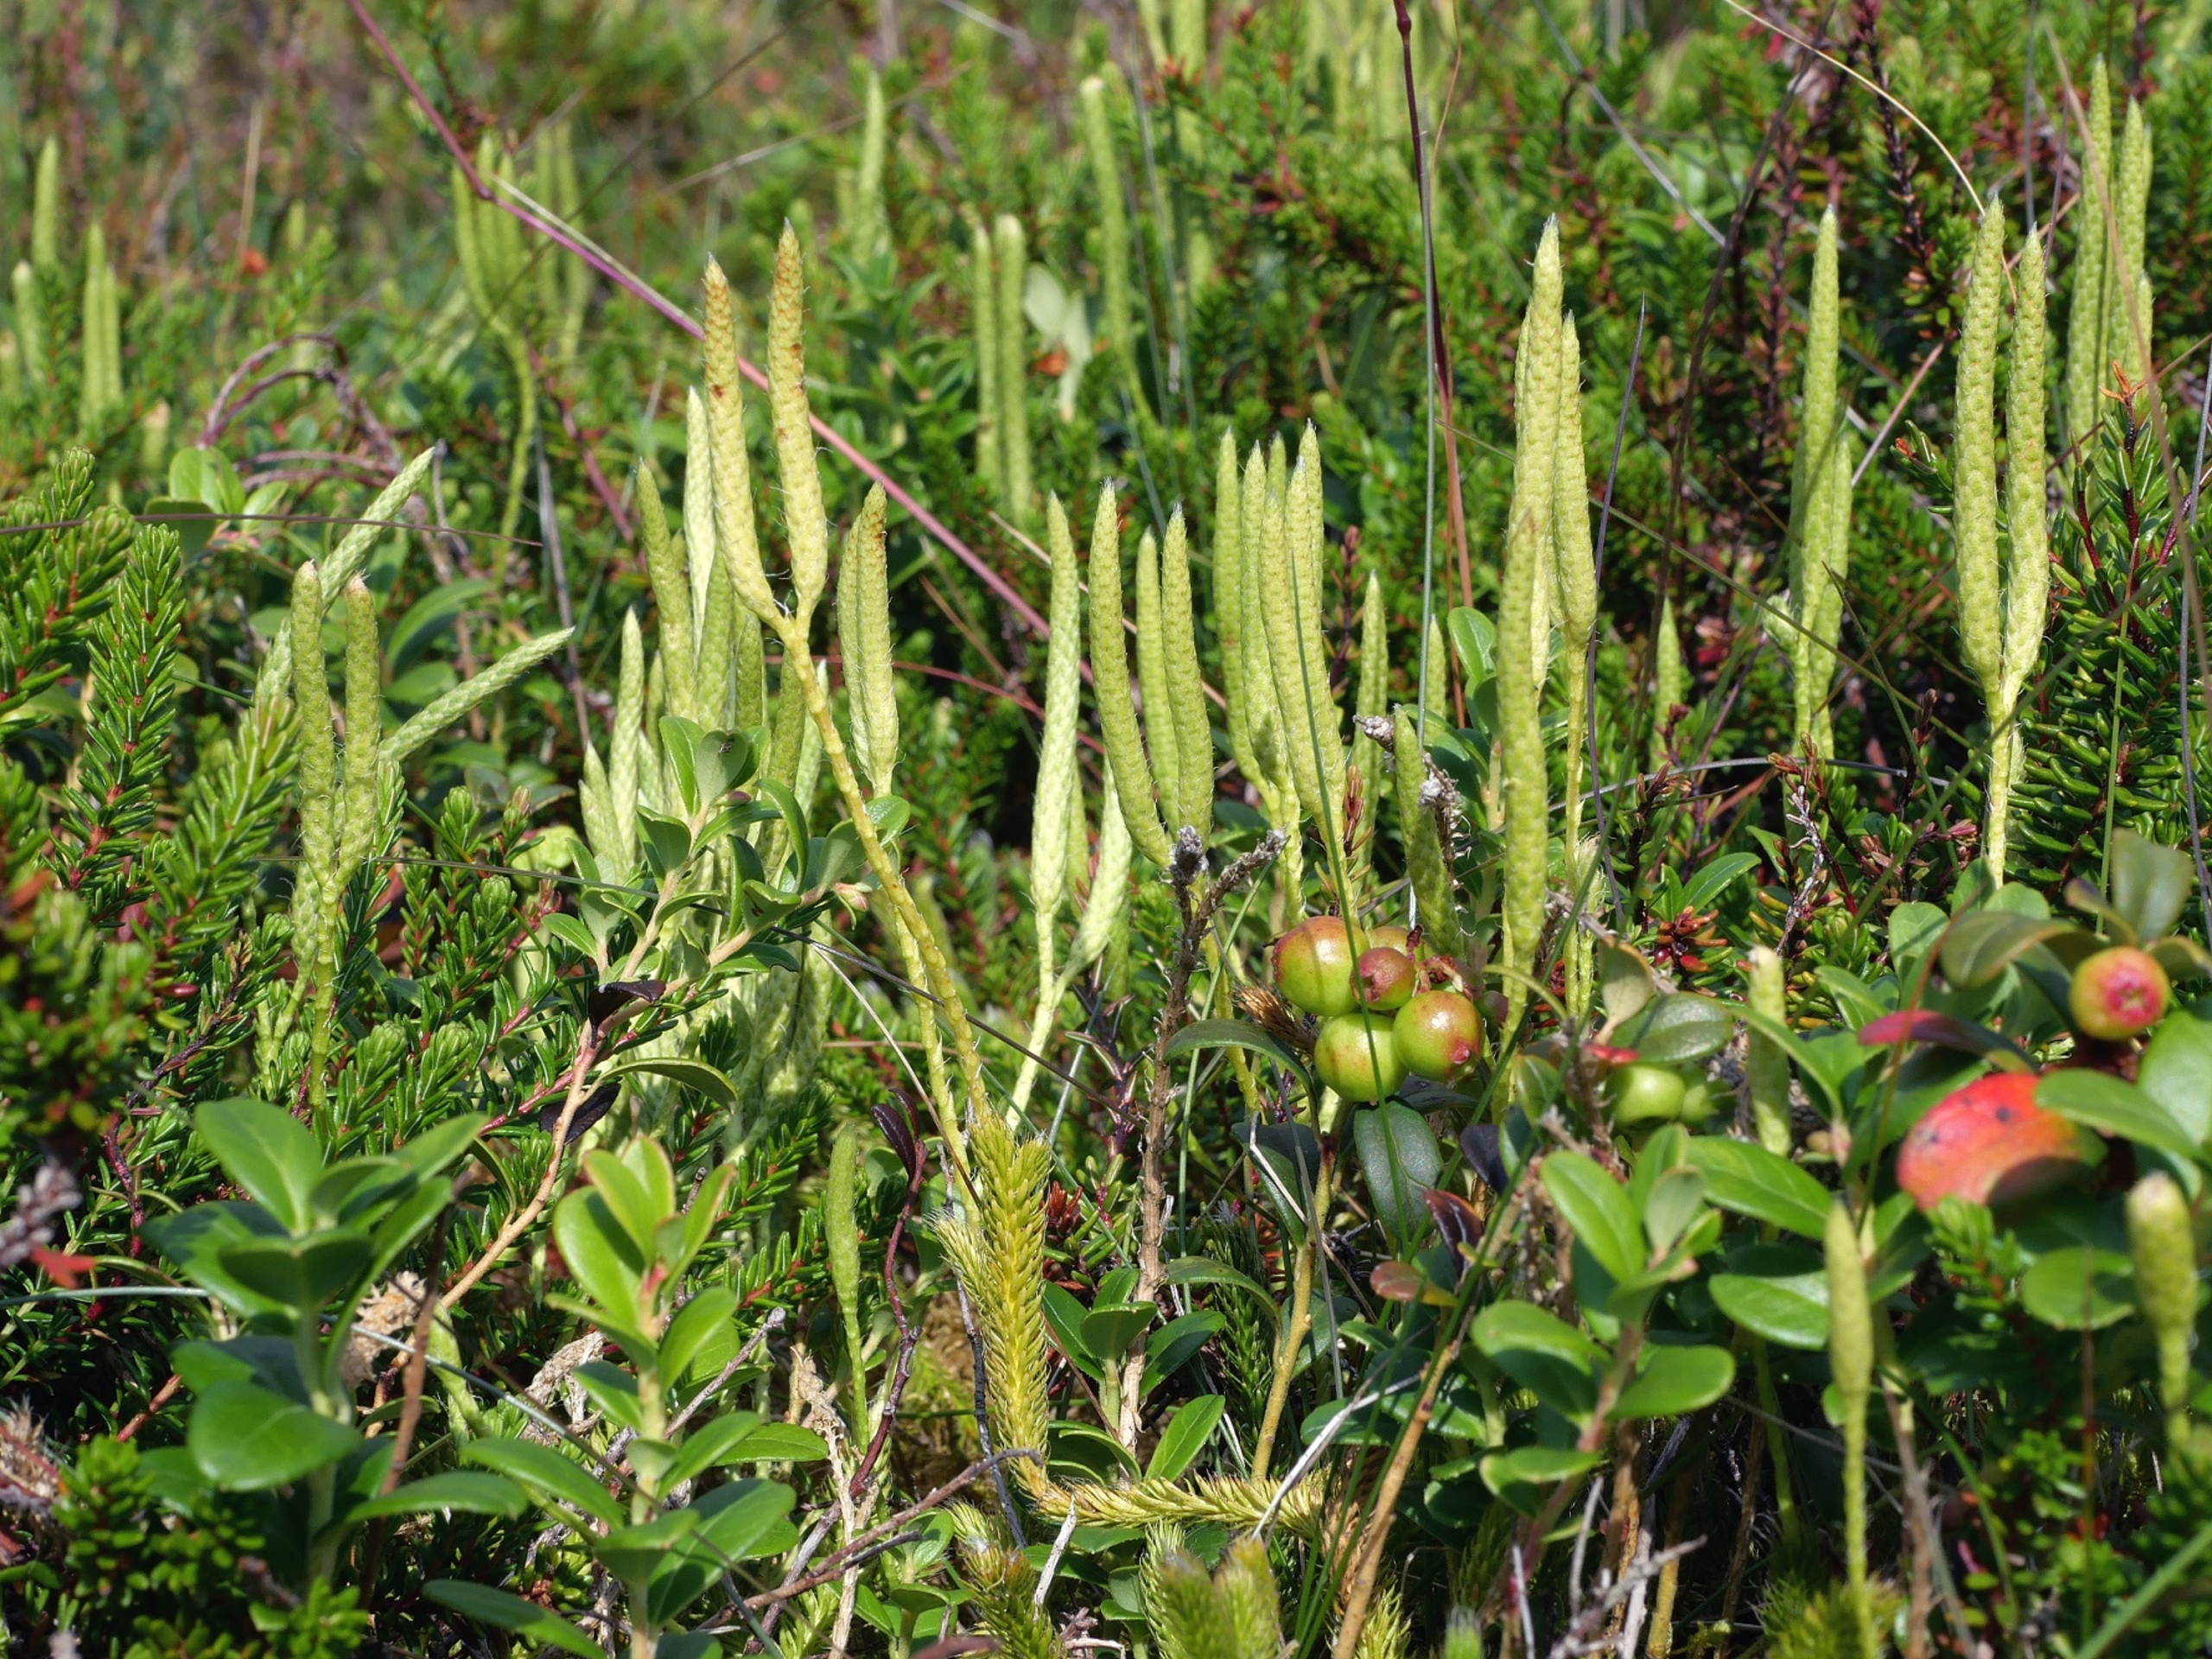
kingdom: Plantae
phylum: Tracheophyta
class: Lycopodiopsida
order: Lycopodiales
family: Lycopodiaceae
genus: Lycopodium
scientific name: Lycopodium clavatum
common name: Almindelig ulvefod
